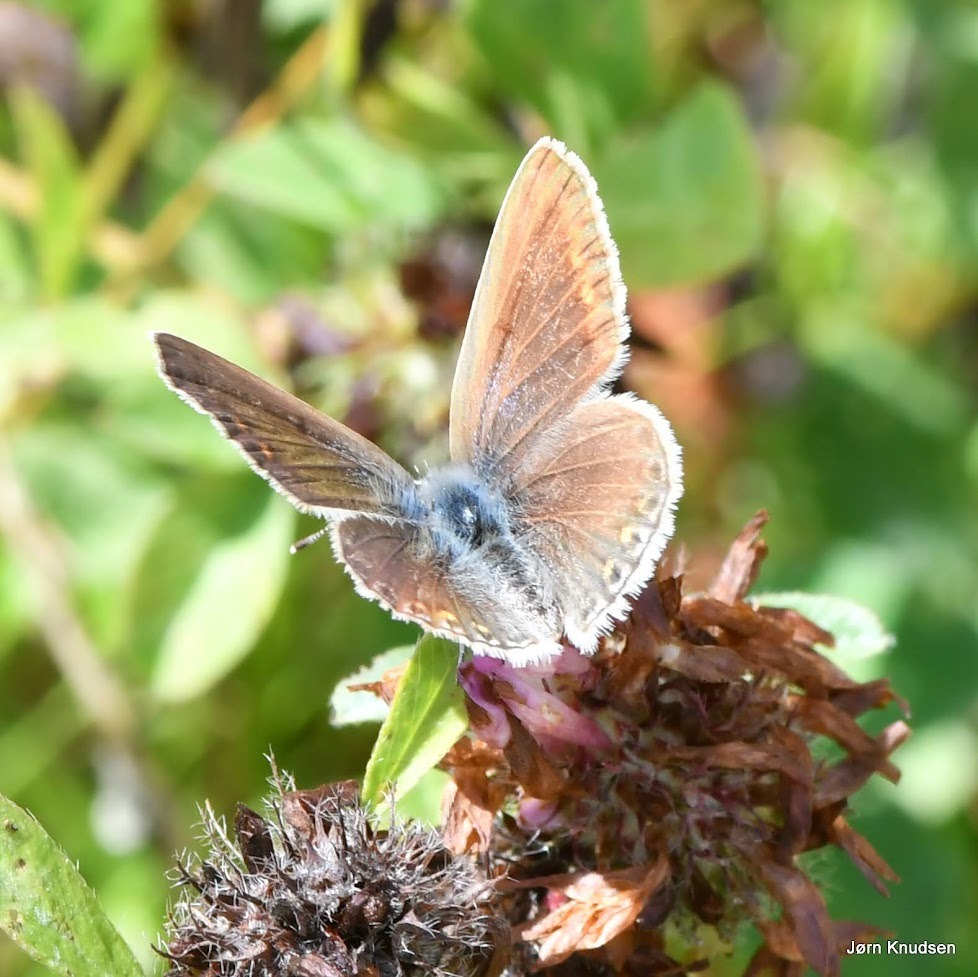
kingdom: Animalia
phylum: Arthropoda
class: Insecta
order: Lepidoptera
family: Lycaenidae
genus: Polyommatus
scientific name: Polyommatus icarus
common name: Almindelig blåfugl
